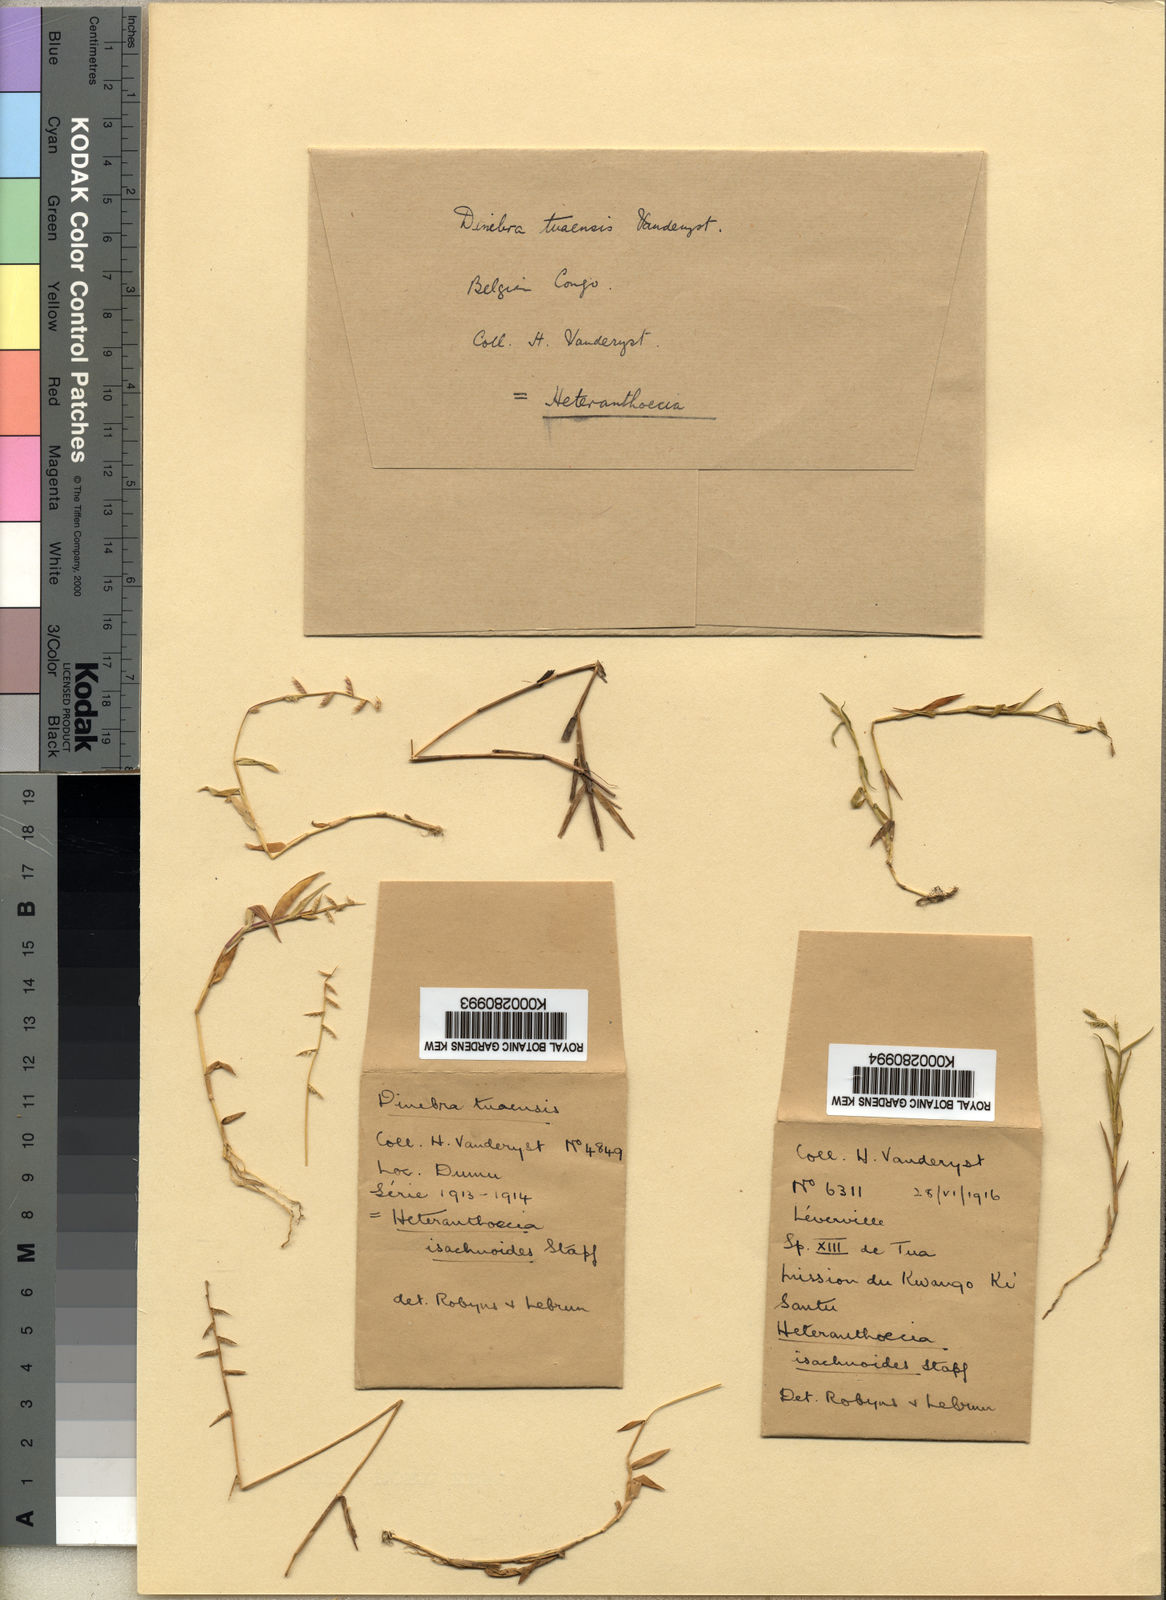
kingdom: Plantae
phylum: Tracheophyta
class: Liliopsida
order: Poales
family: Poaceae
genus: Heteranthoecia
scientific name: Heteranthoecia guineensis
